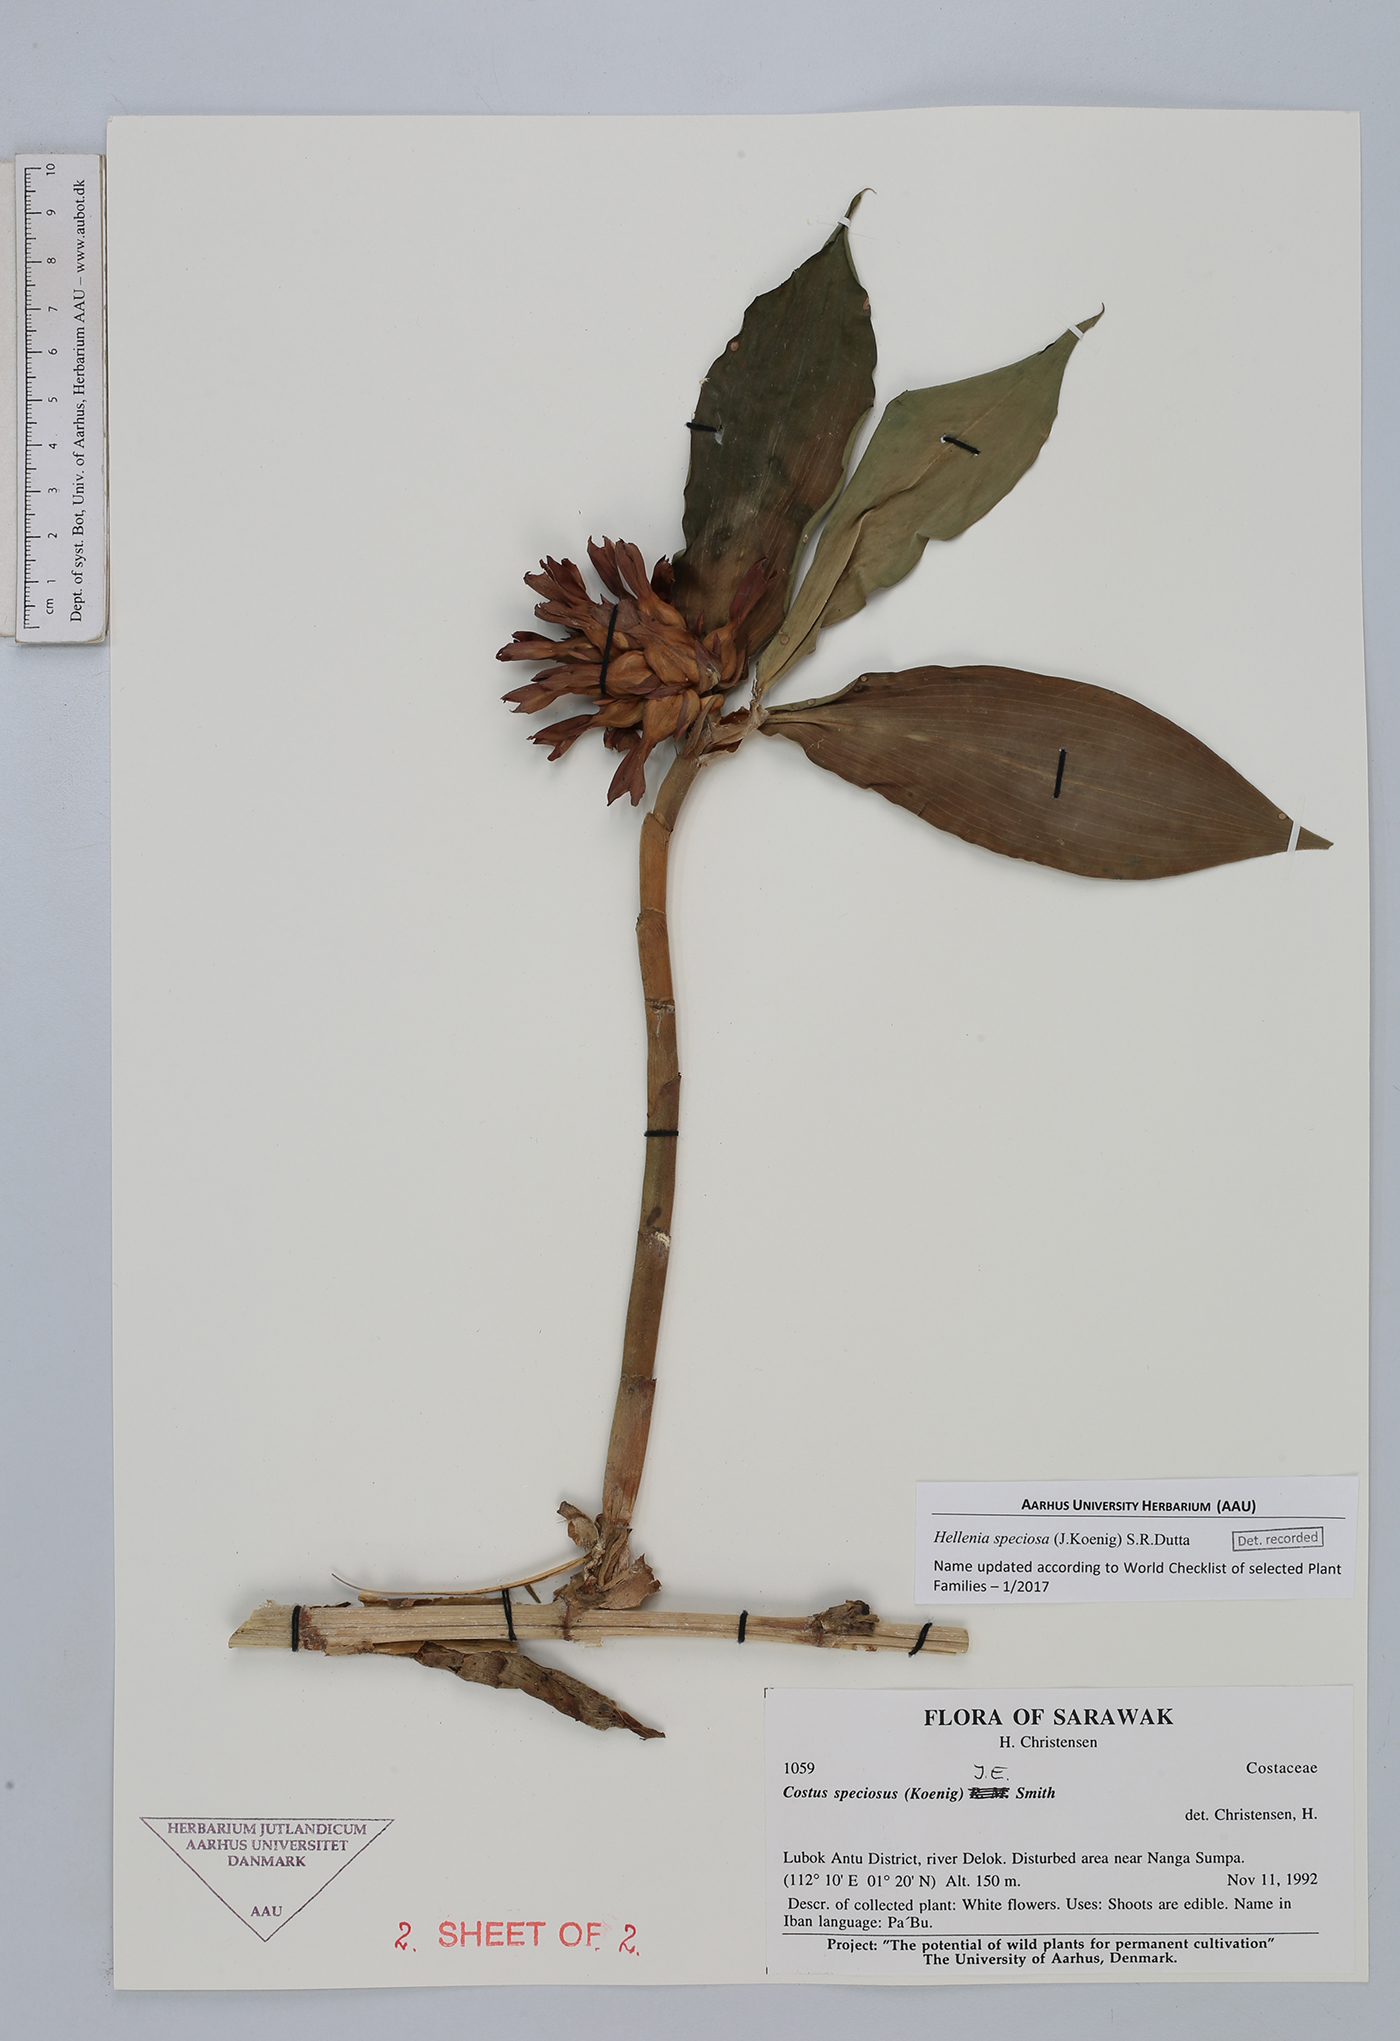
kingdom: Plantae
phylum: Tracheophyta
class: Liliopsida
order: Zingiberales
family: Costaceae
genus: Hellenia
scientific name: Hellenia speciosa
